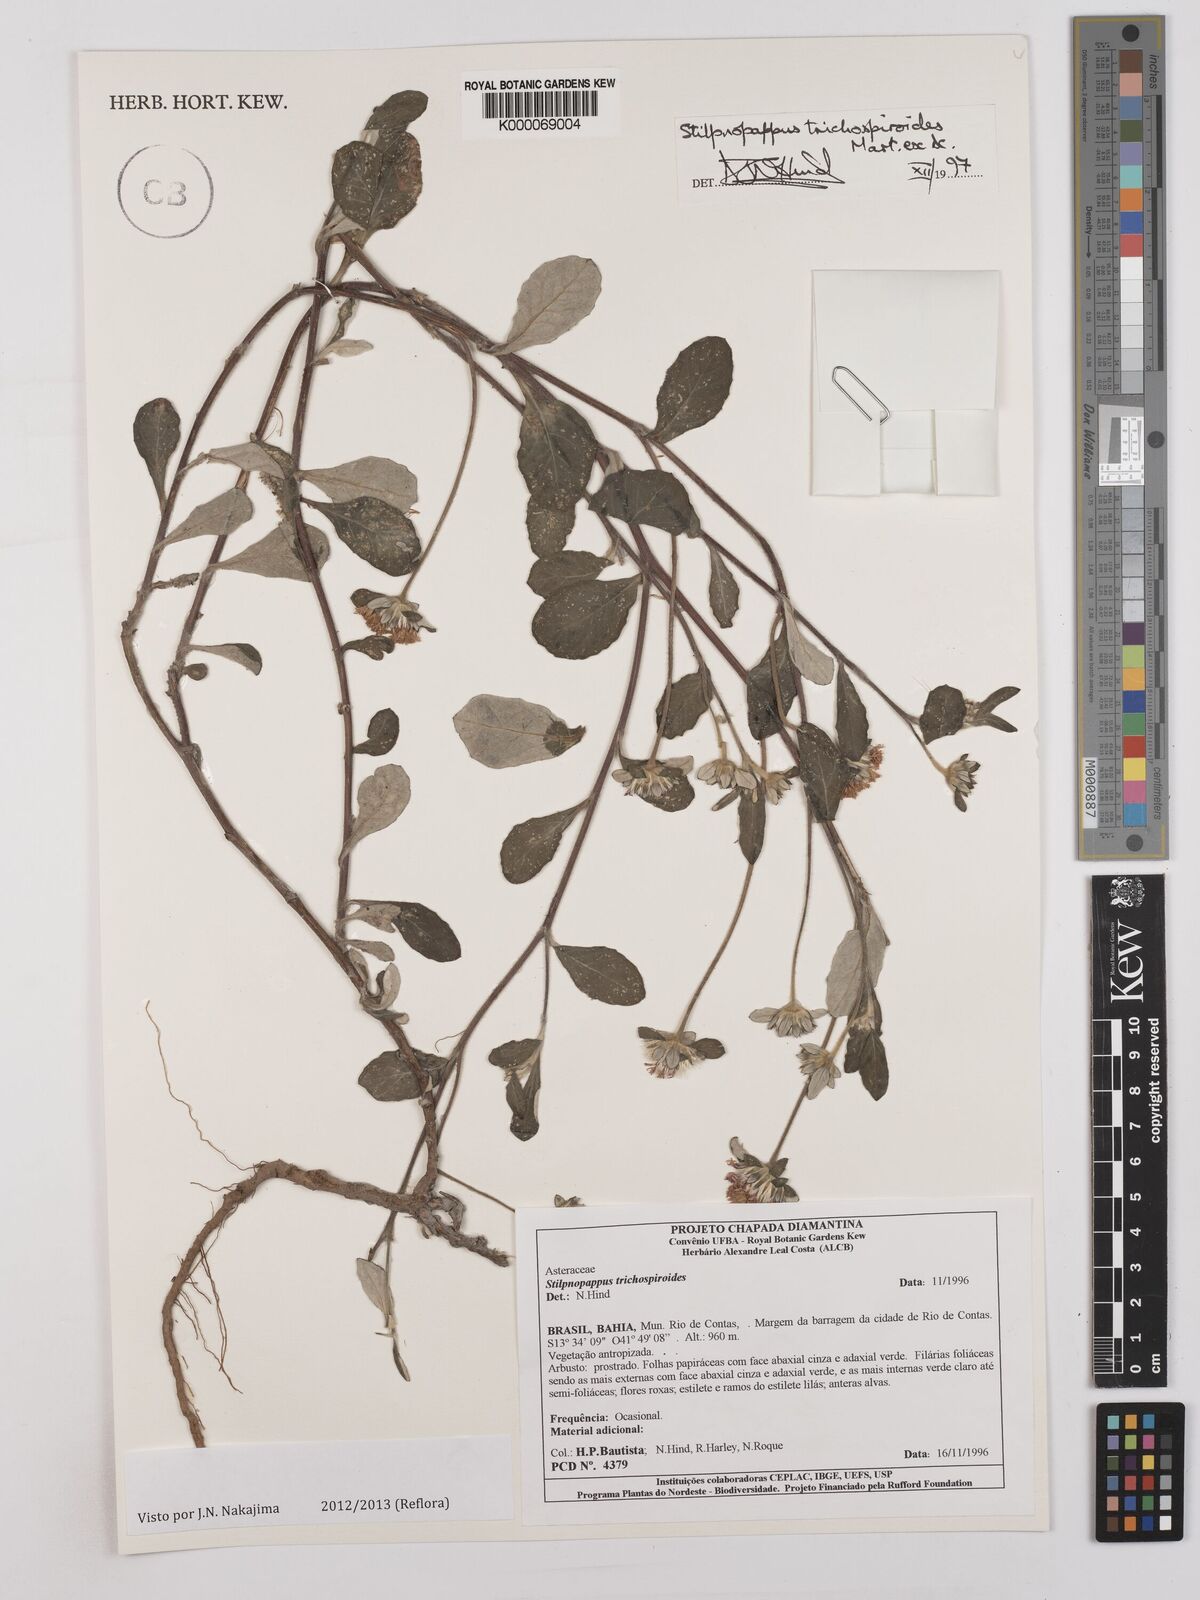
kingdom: Plantae
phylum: Tracheophyta
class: Magnoliopsida
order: Asterales
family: Asteraceae
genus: Stilpnopappus
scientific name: Stilpnopappus
